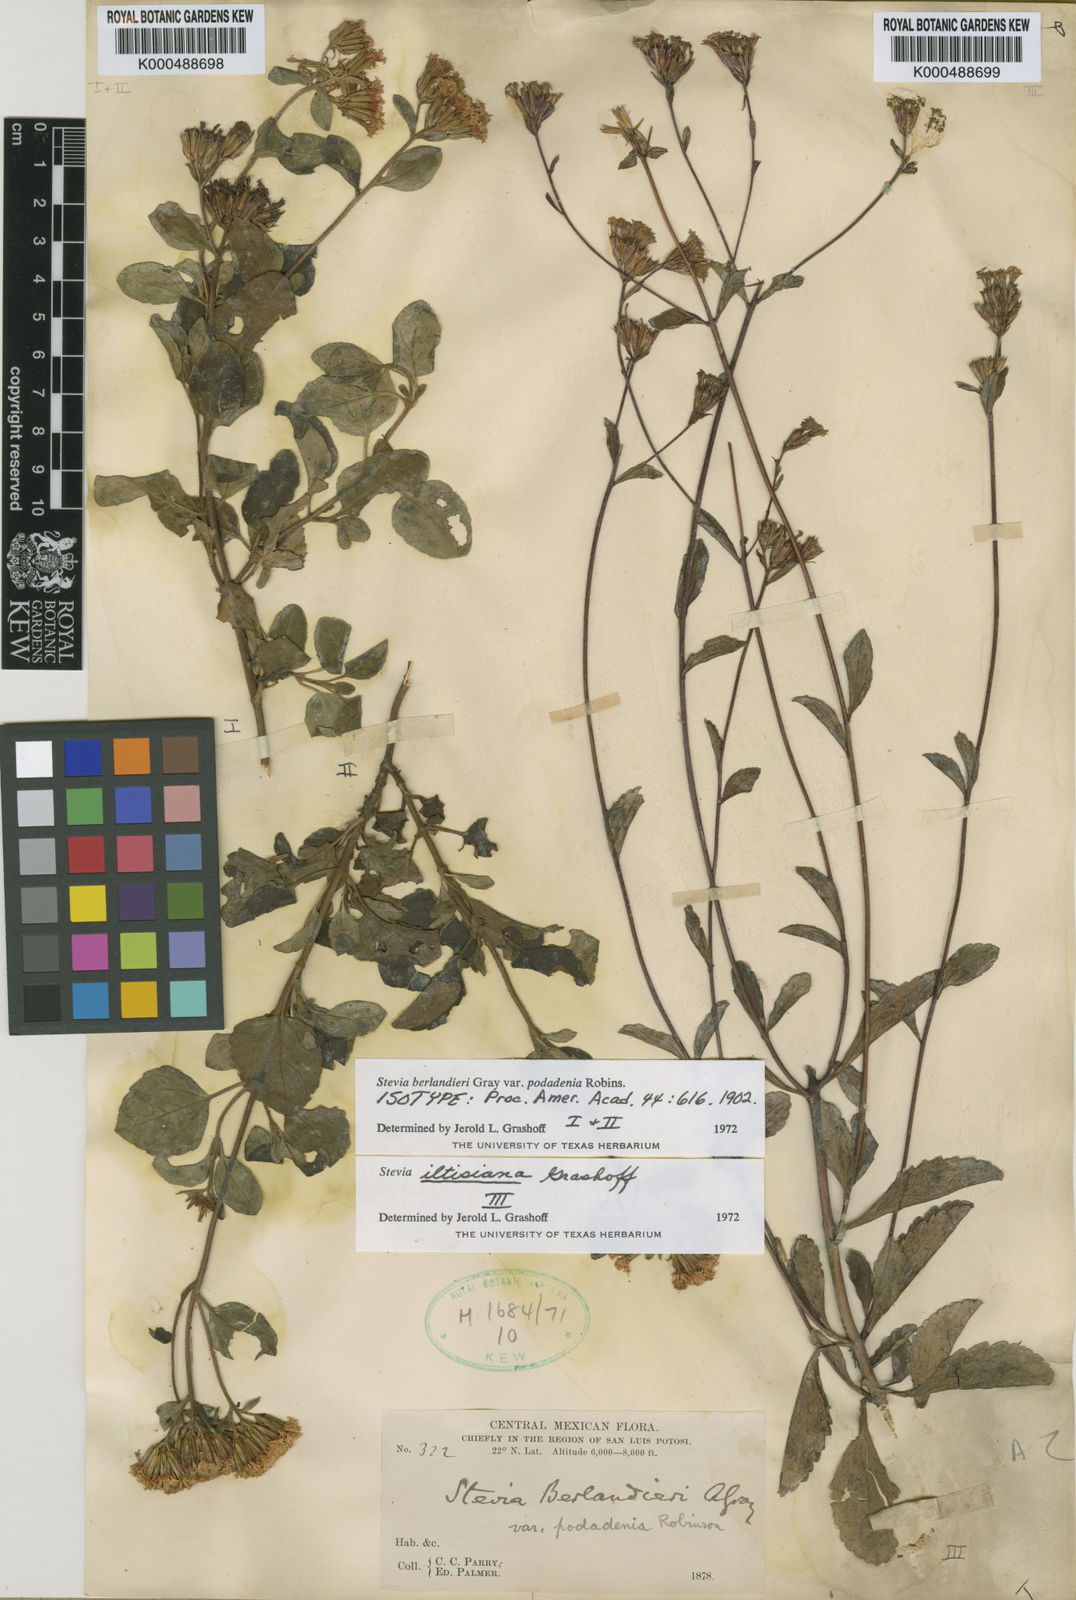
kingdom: Plantae
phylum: Tracheophyta
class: Magnoliopsida
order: Asterales
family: Asteraceae
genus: Stevia
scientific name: Stevia berlandieri
